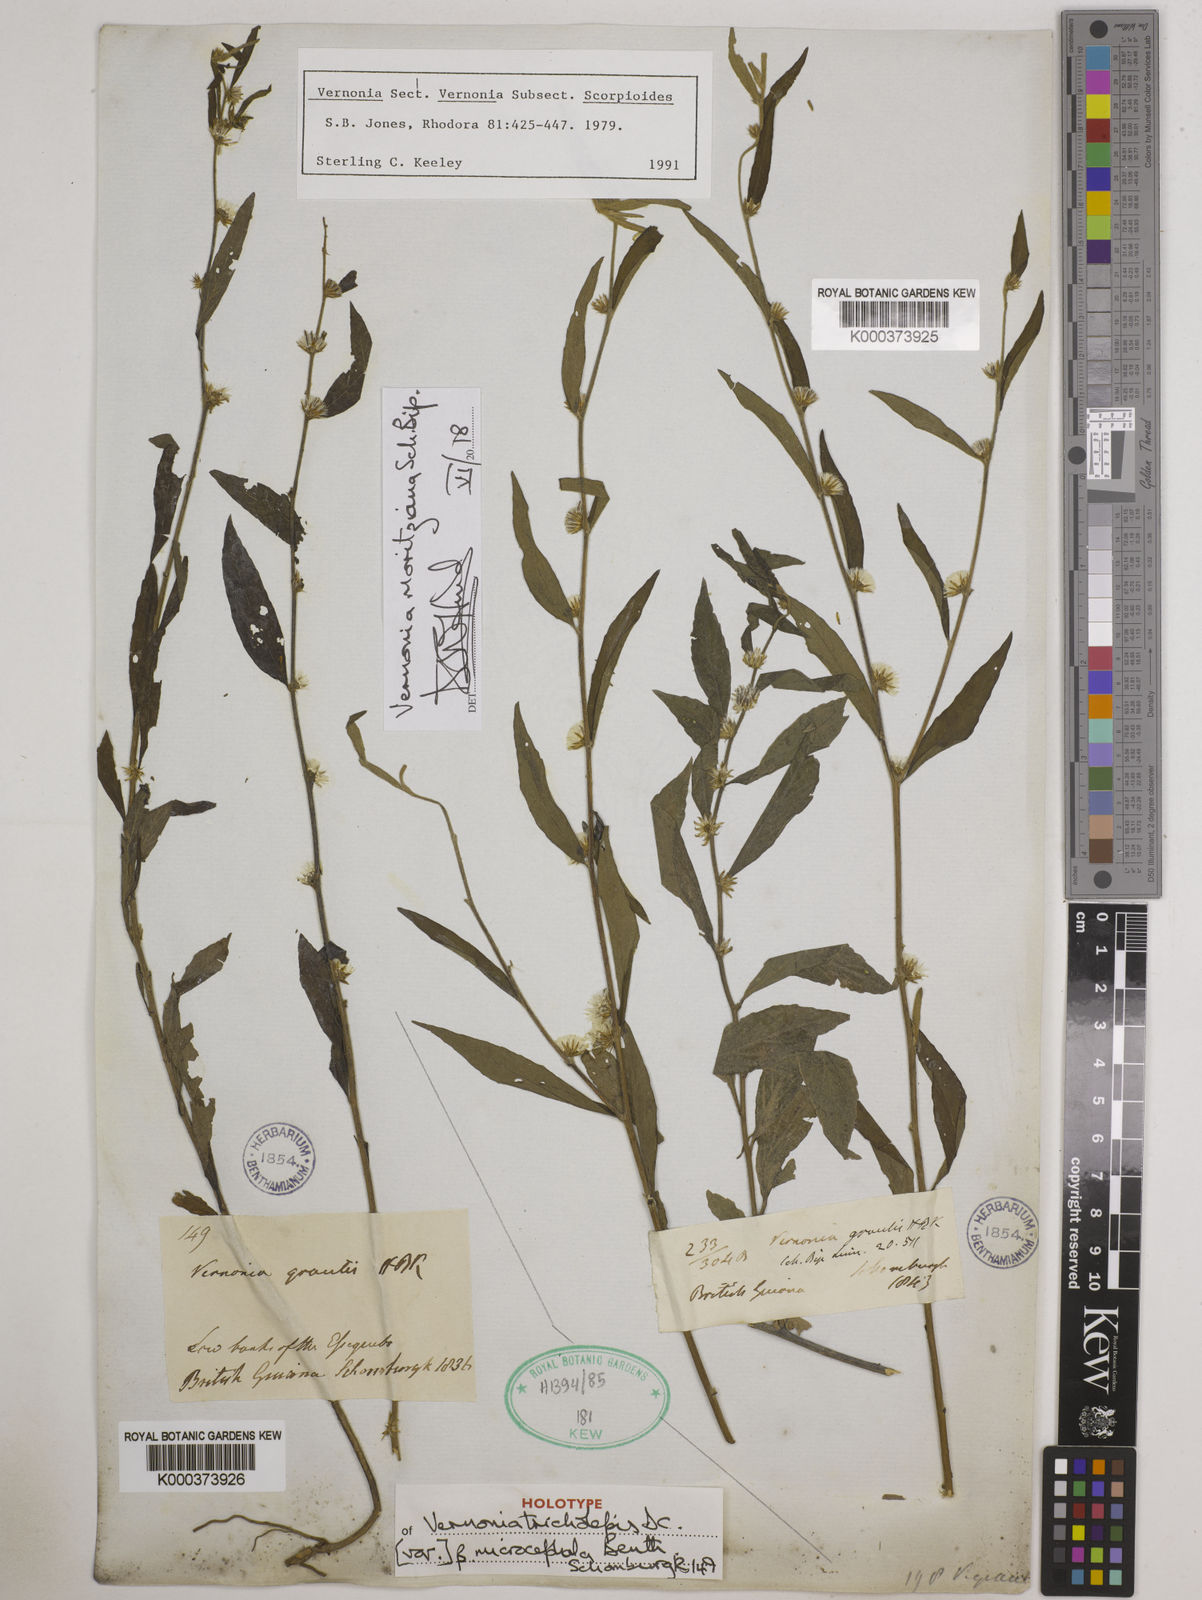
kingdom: Plantae
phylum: Tracheophyta
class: Magnoliopsida
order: Asterales
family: Asteraceae
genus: Lepidaploa
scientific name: Lepidaploa gracilis
